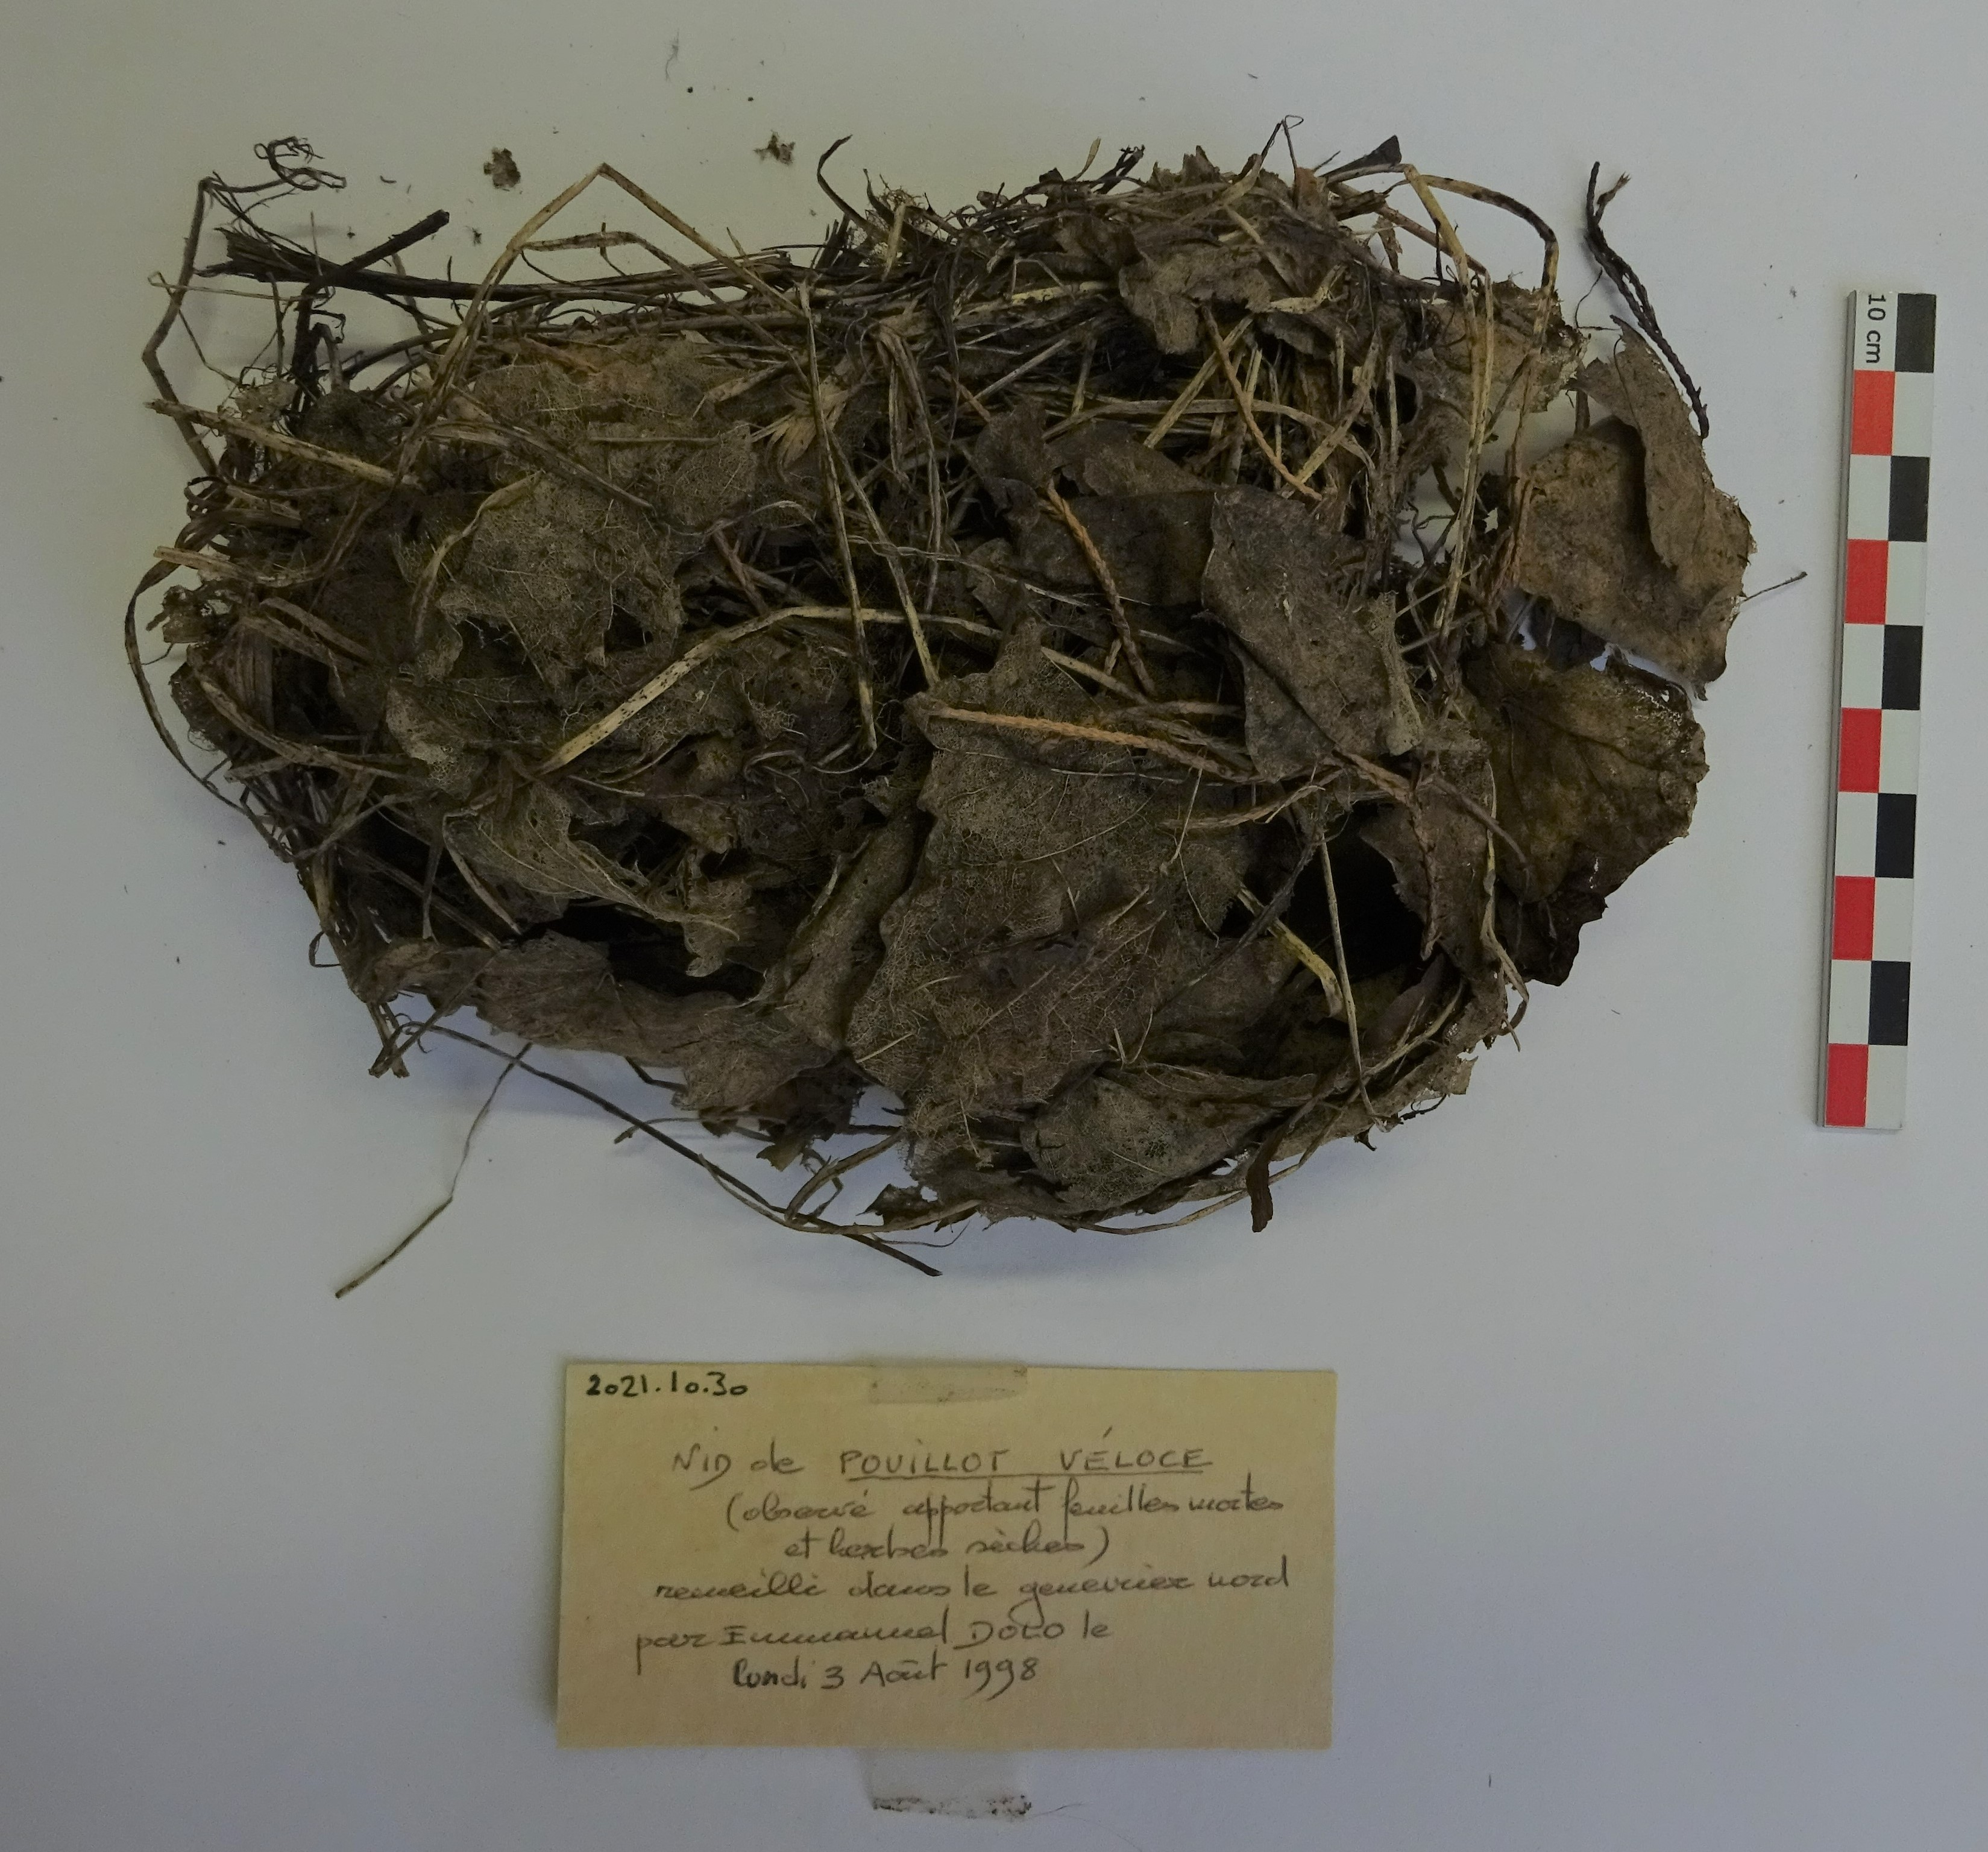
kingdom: Animalia
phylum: Chordata
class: Aves
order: Passeriformes
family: Phylloscopidae
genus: Phylloscopus
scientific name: Phylloscopus collybita
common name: Common chiffchaff
